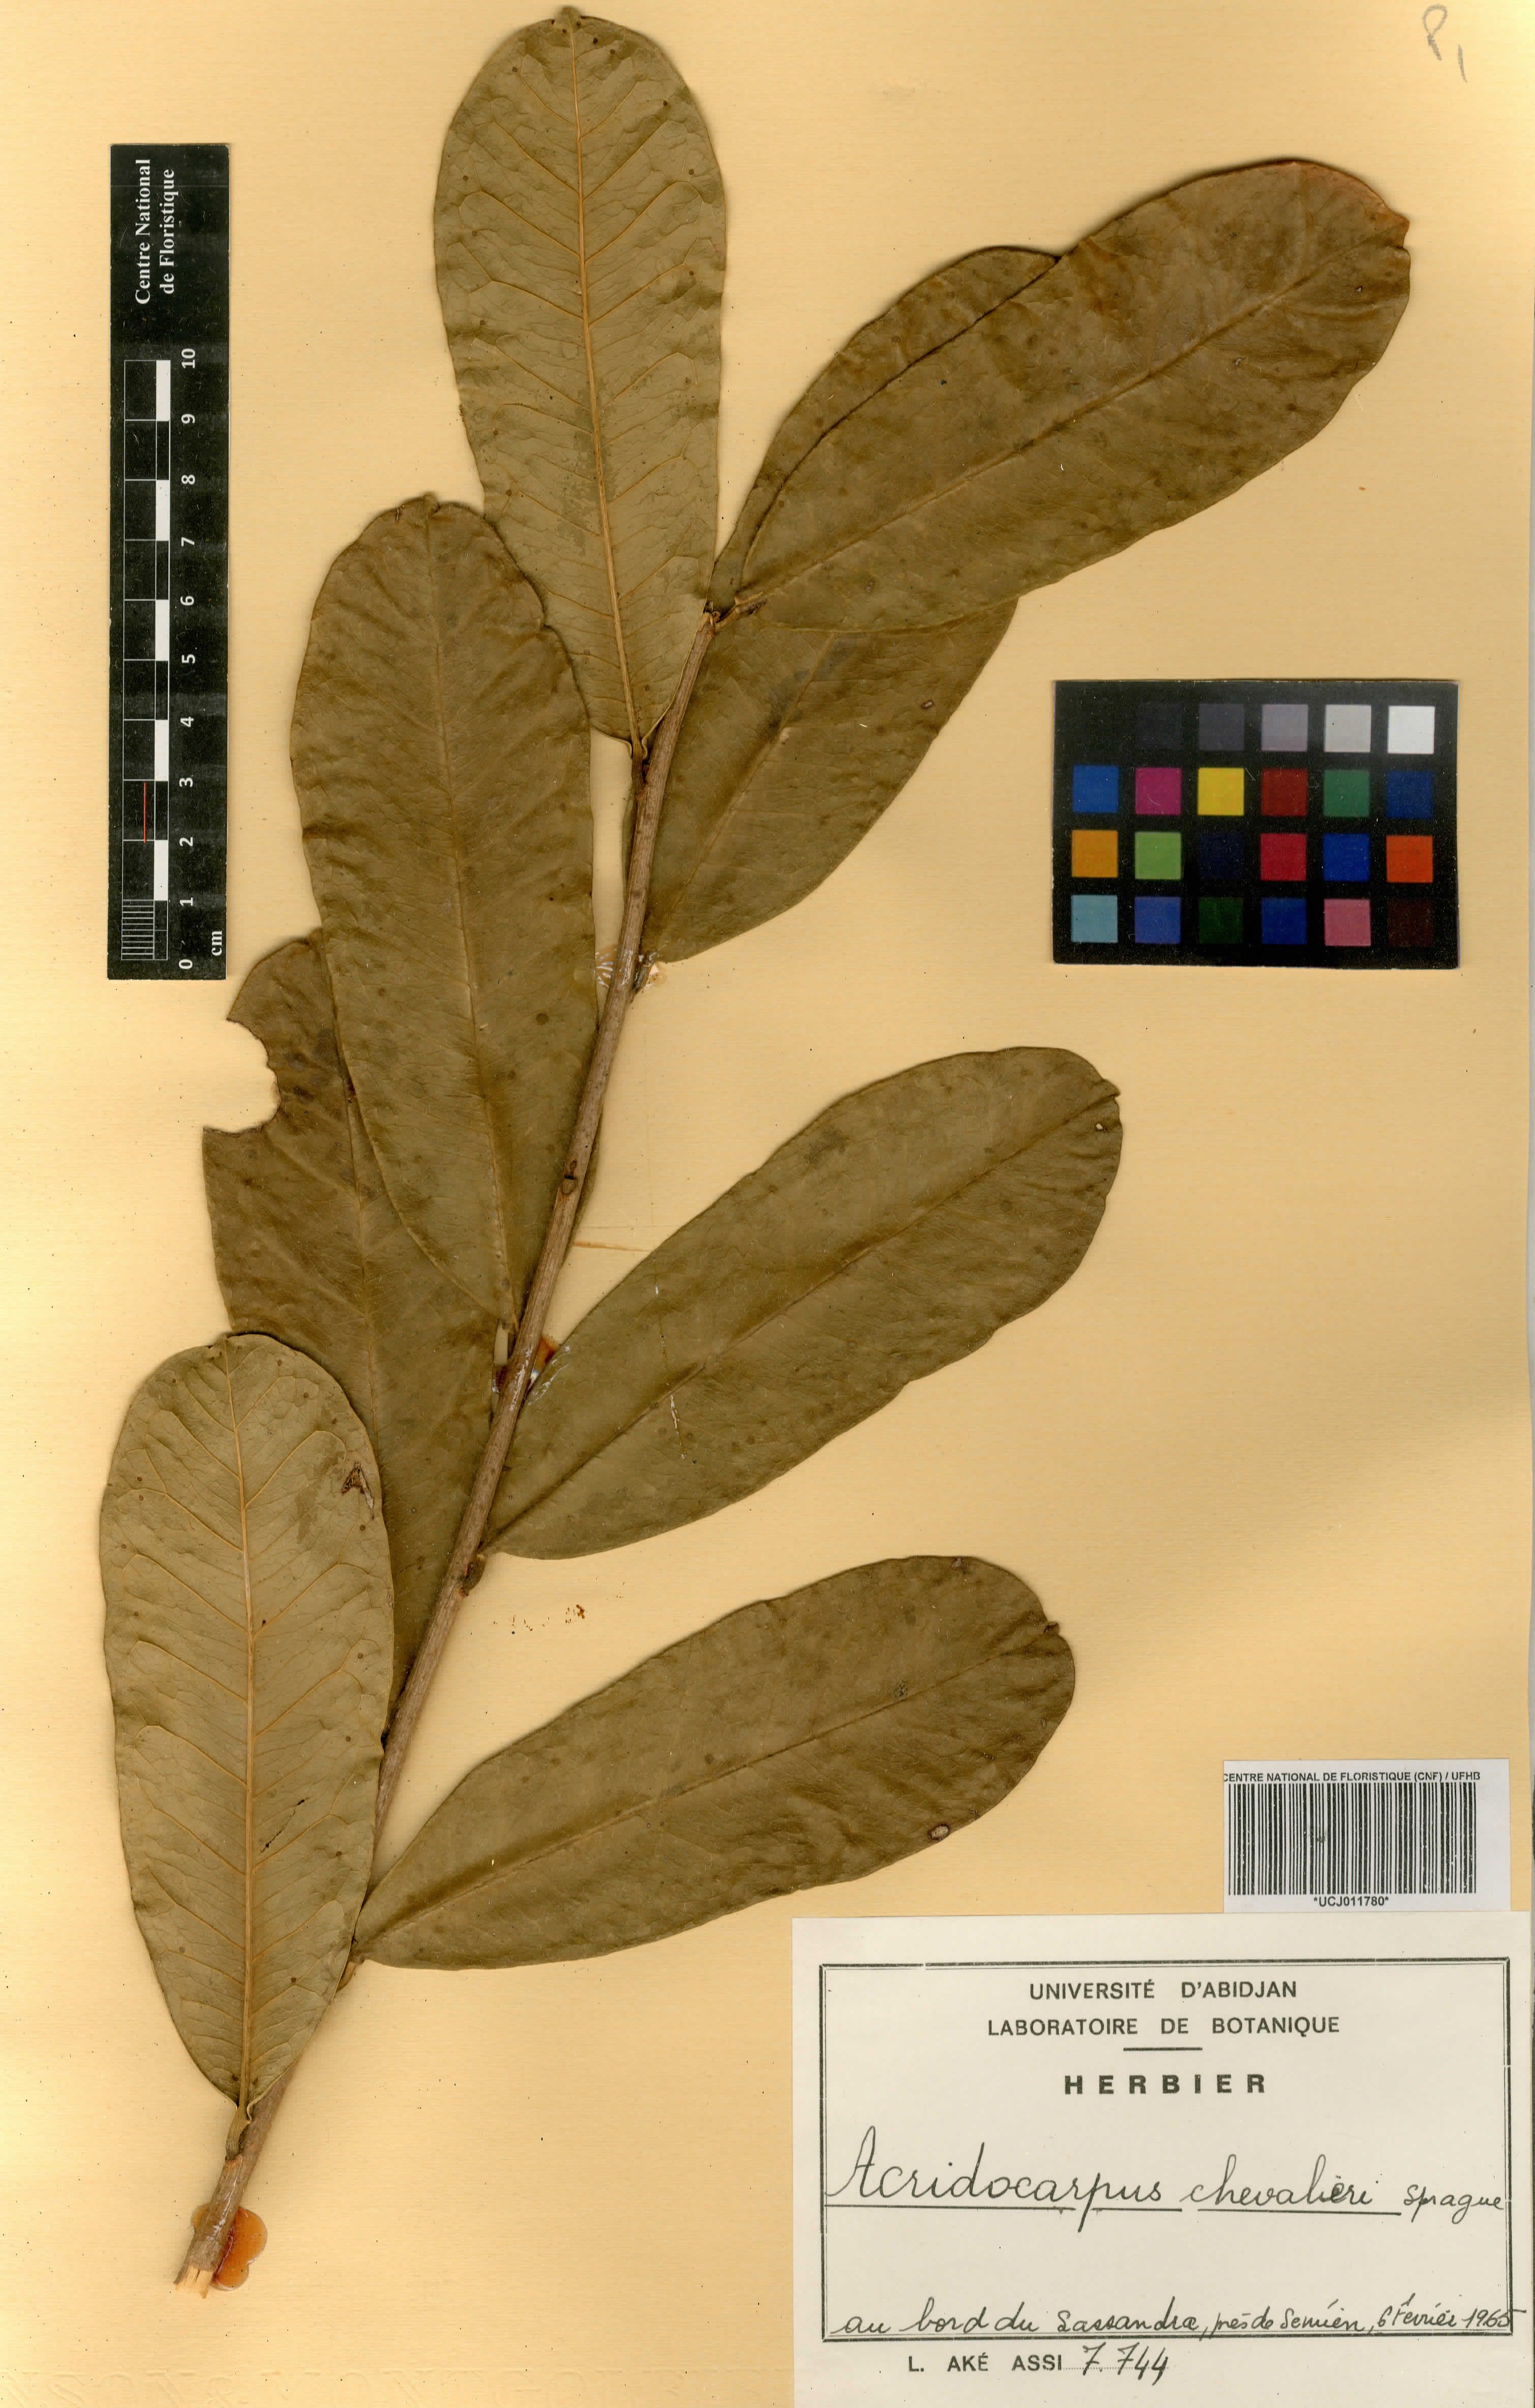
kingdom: Plantae
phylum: Tracheophyta
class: Magnoliopsida
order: Malpighiales
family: Malpighiaceae
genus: Acridocarpus
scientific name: Acridocarpus chevalieri
